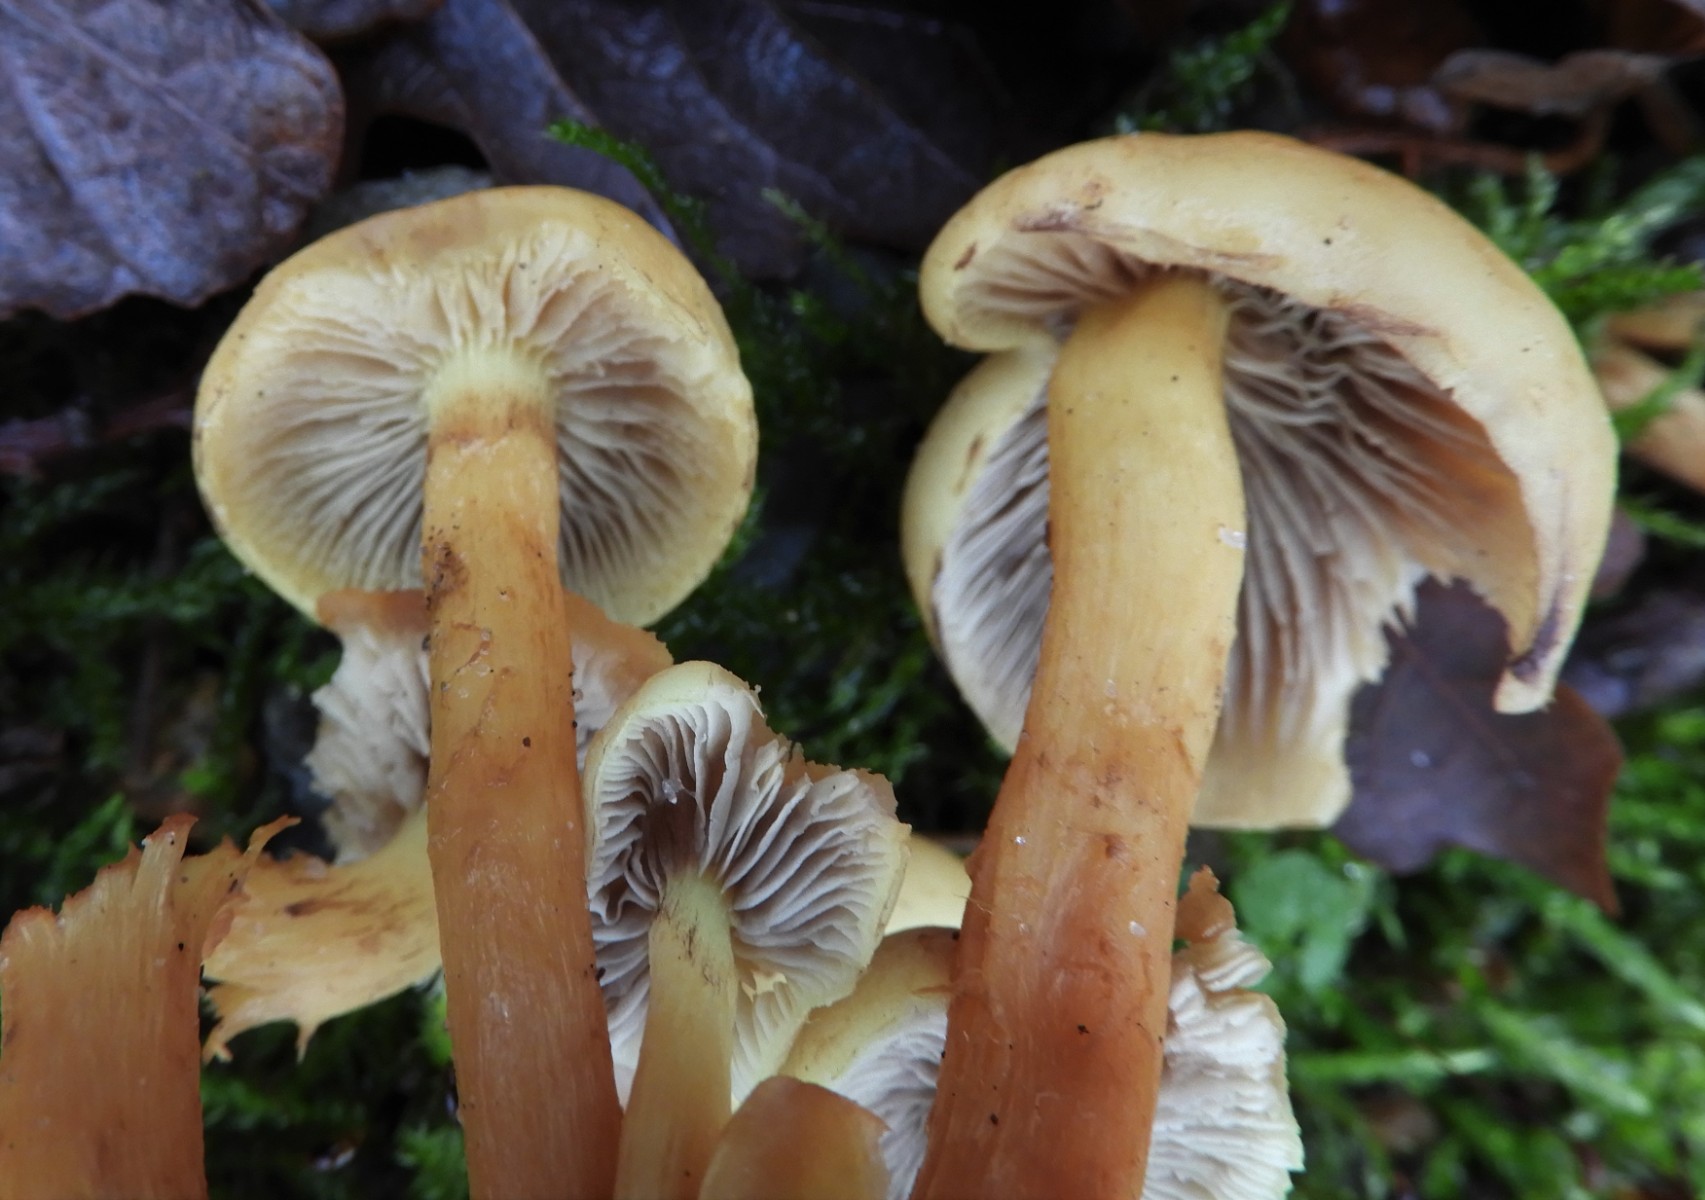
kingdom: Fungi
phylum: Basidiomycota
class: Agaricomycetes
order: Agaricales
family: Strophariaceae
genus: Hypholoma
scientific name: Hypholoma capnoides
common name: gran-svovlhat
